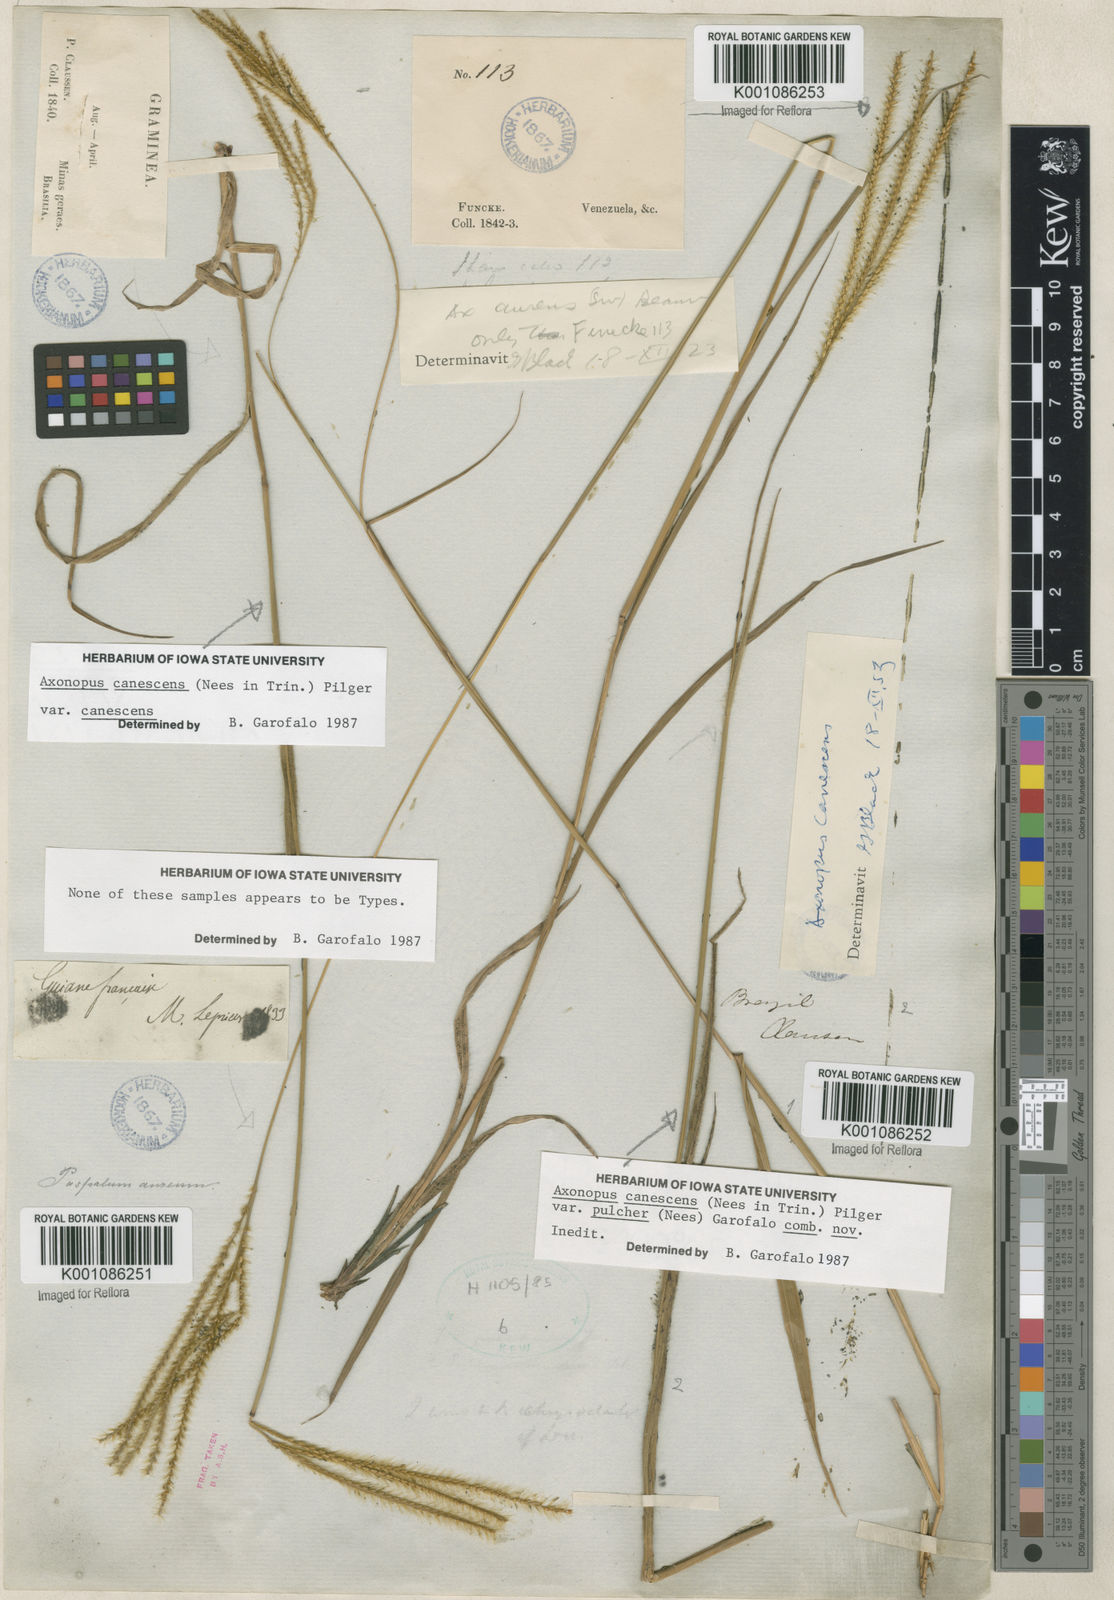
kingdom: Plantae
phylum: Tracheophyta
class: Liliopsida
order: Poales
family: Poaceae
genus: Axonopus
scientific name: Axonopus aureus
